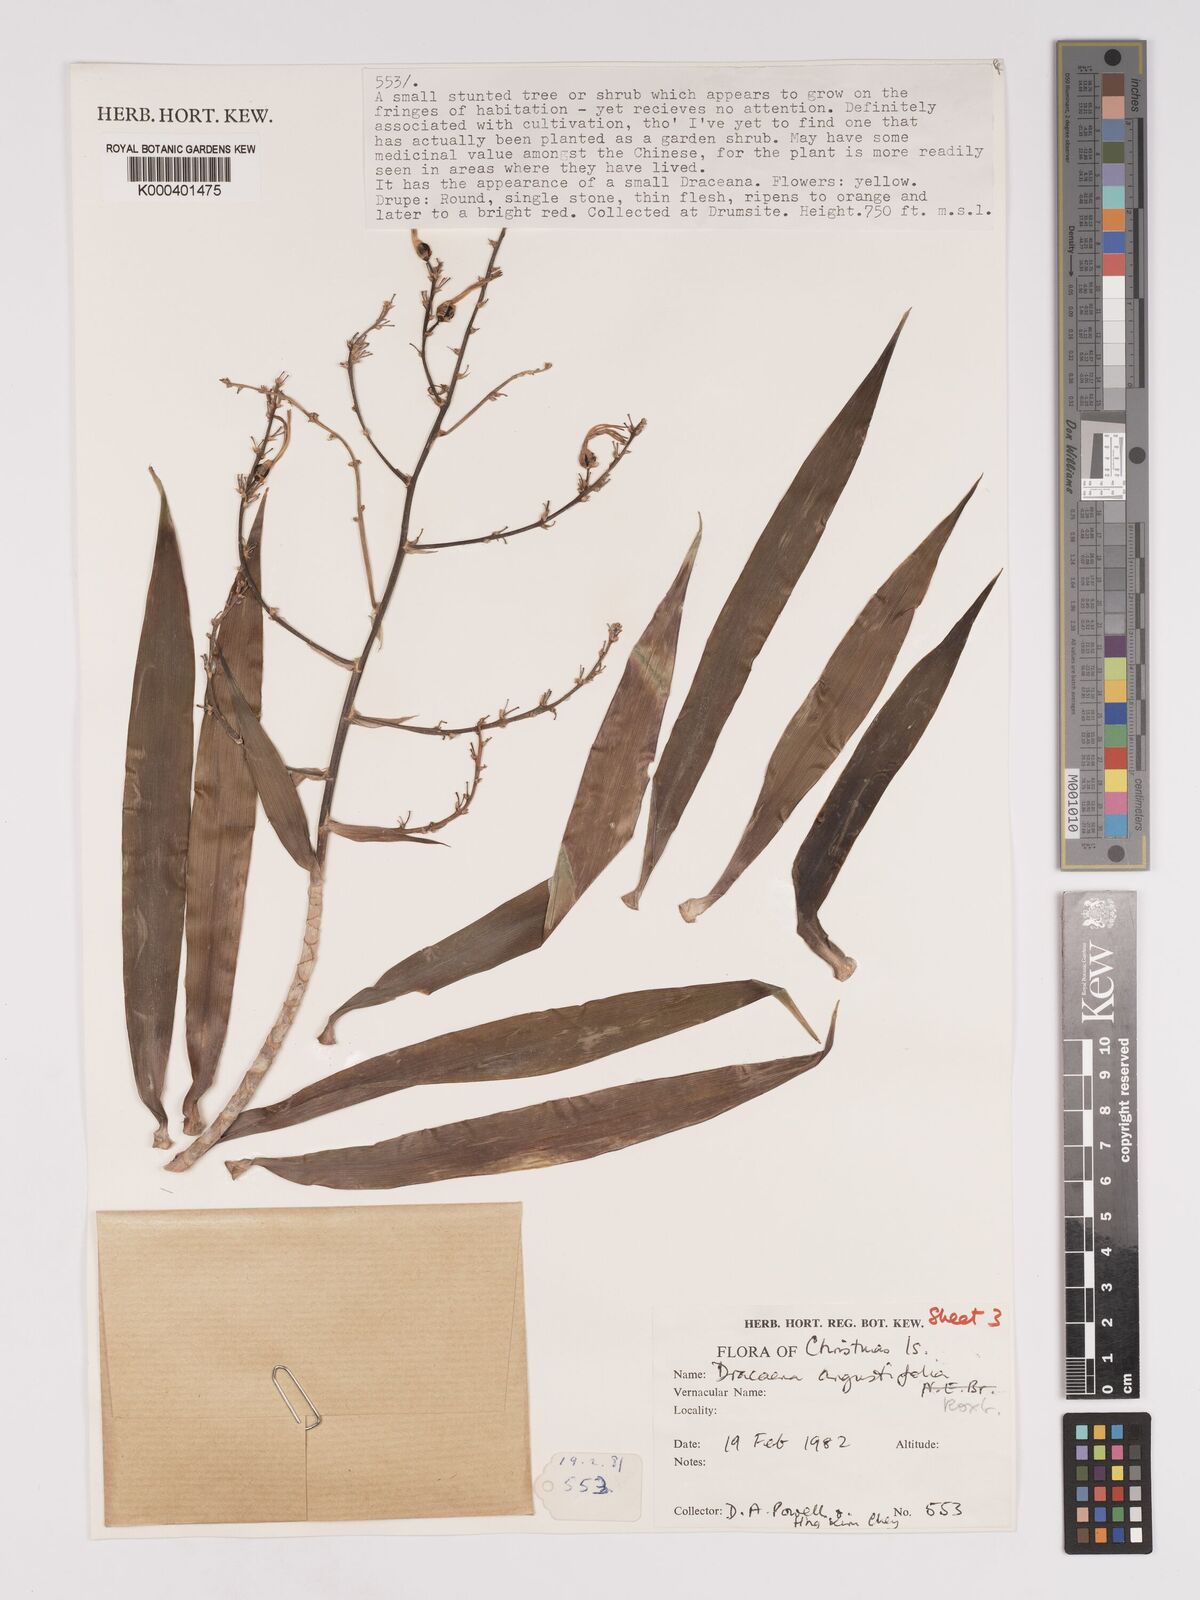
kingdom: Plantae
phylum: Tracheophyta
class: Liliopsida
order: Asparagales
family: Asparagaceae
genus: Dracaena
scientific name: Dracaena angustifolia
